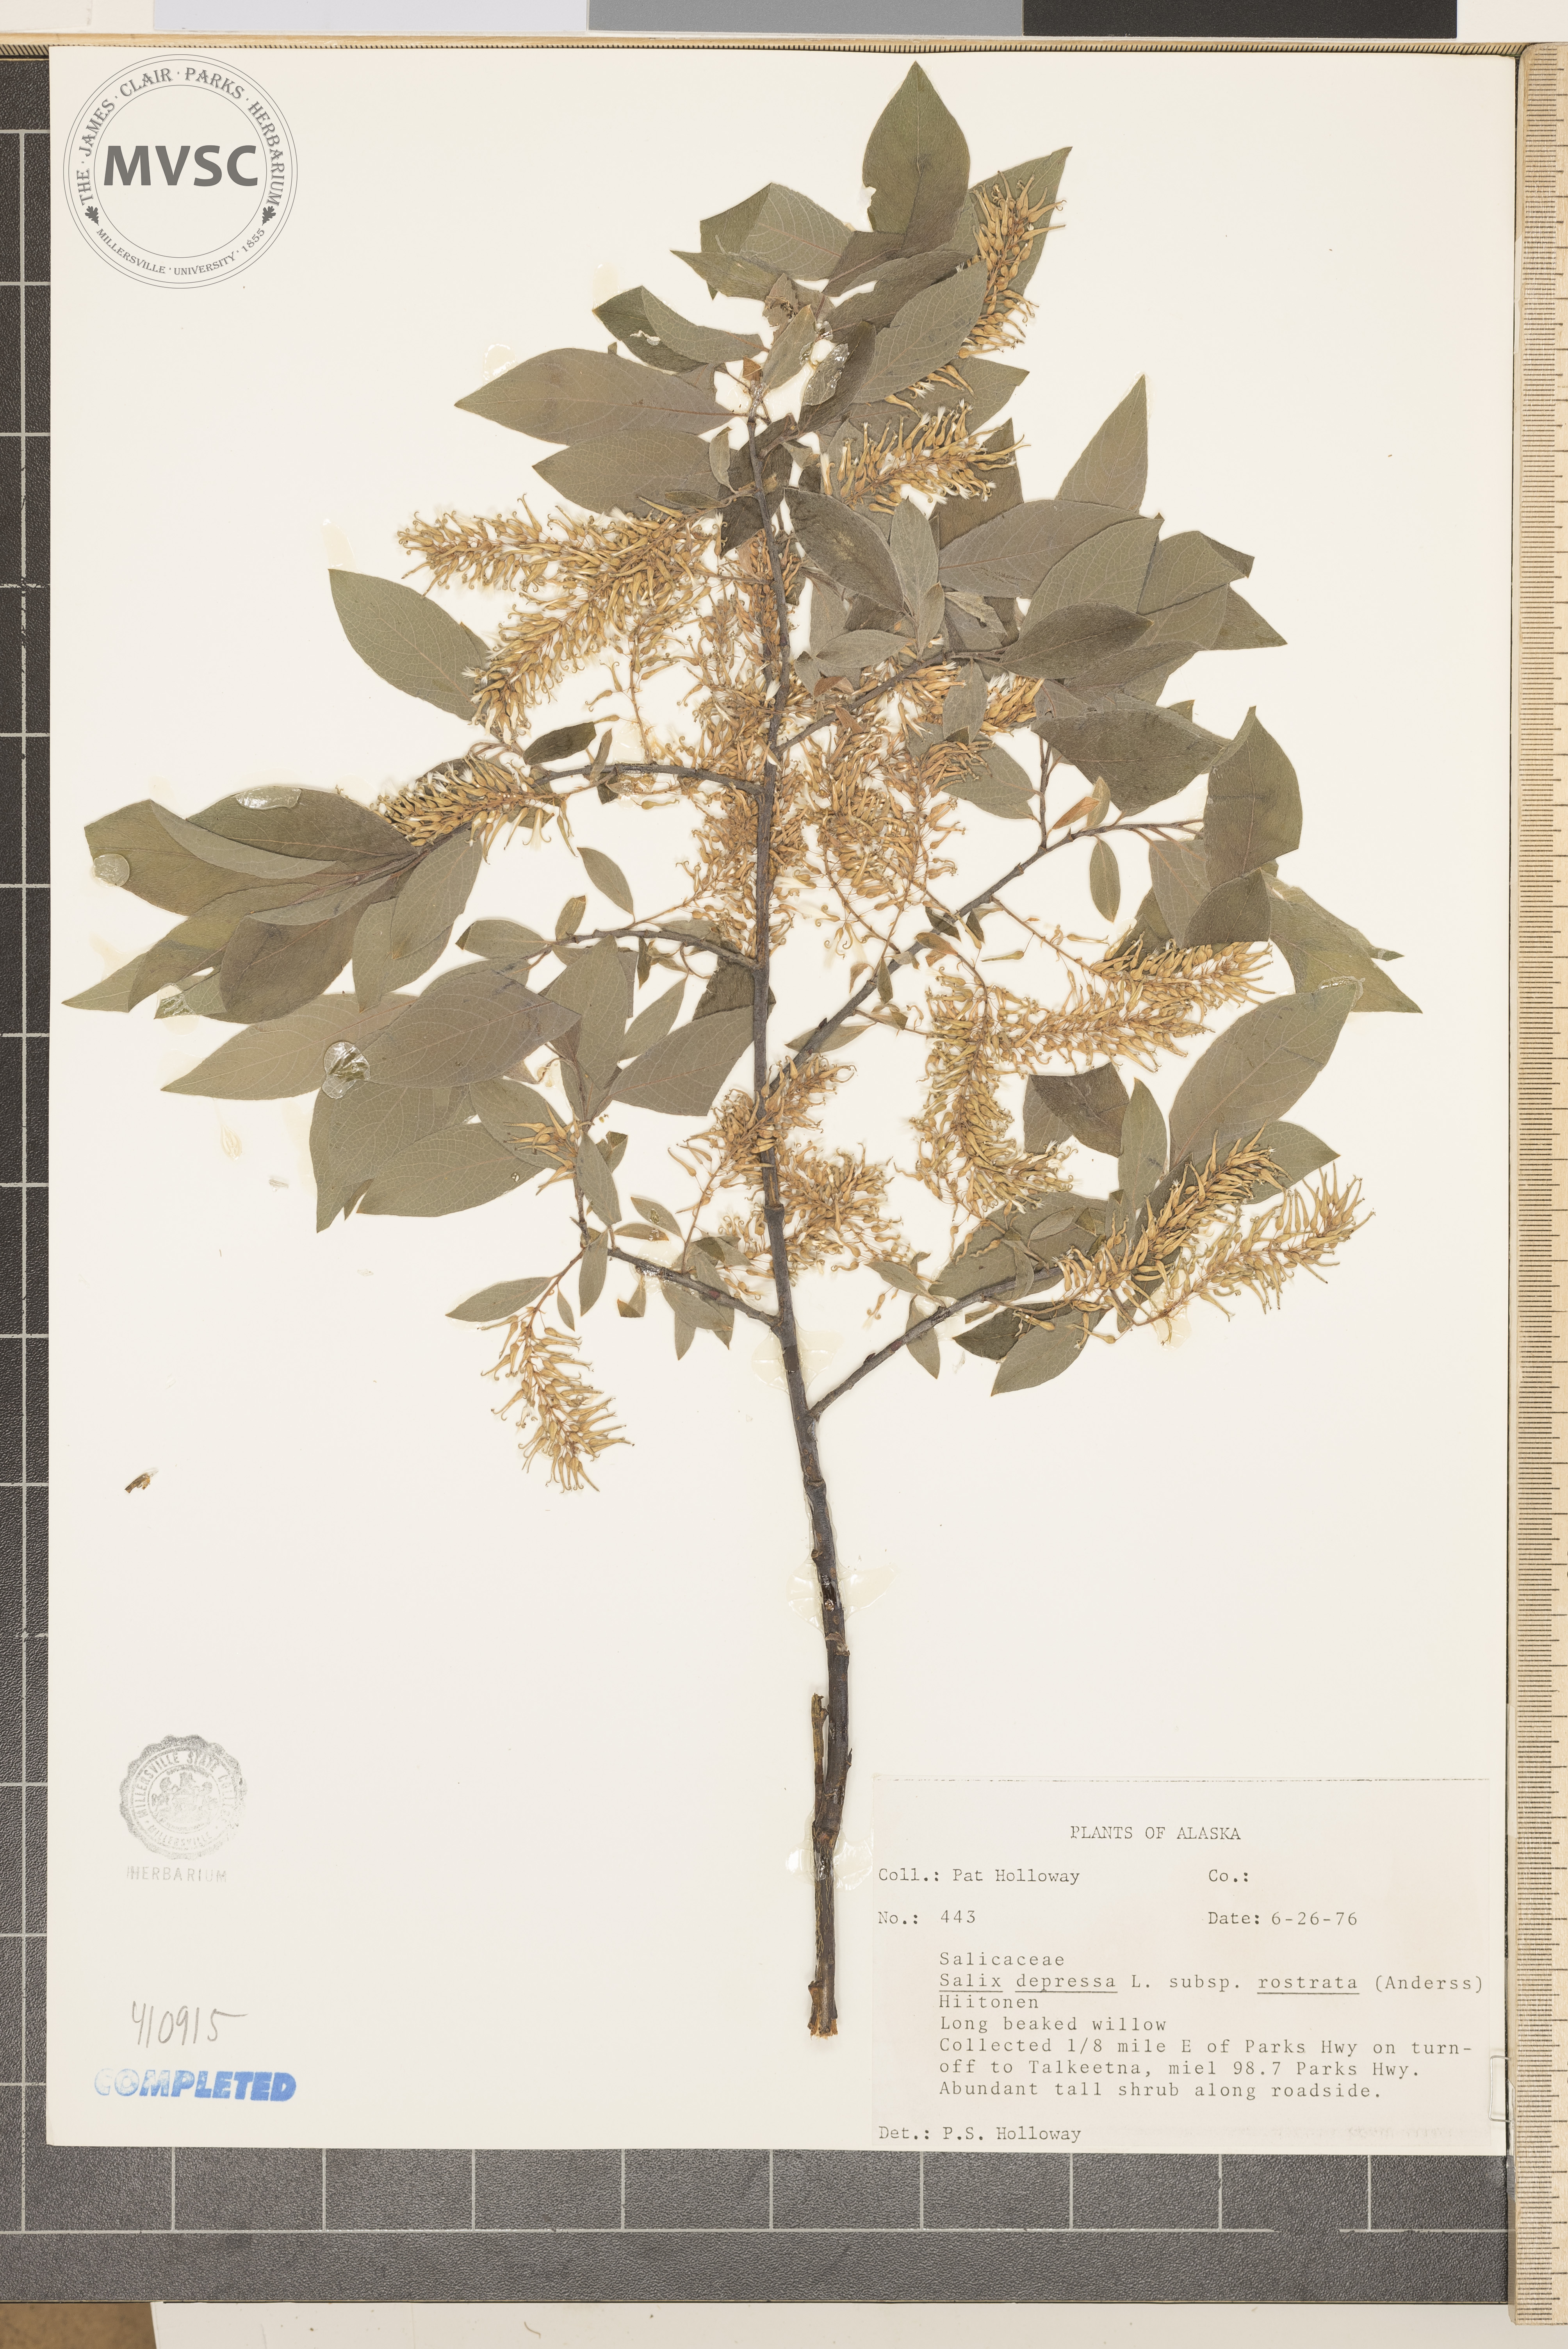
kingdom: Plantae
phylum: Tracheophyta
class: Magnoliopsida
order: Malpighiales
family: Salicaceae
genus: Salix
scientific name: Salix
